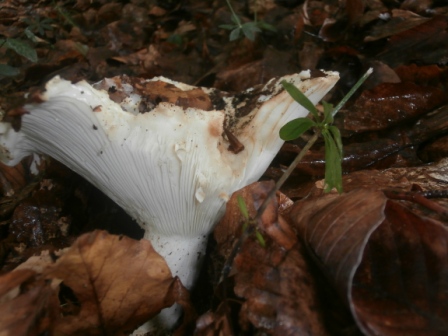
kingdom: Fungi
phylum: Basidiomycota
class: Agaricomycetes
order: Russulales
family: Russulaceae
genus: Russula
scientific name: Russula chloroides
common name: grønhalset tragt-skørhat
